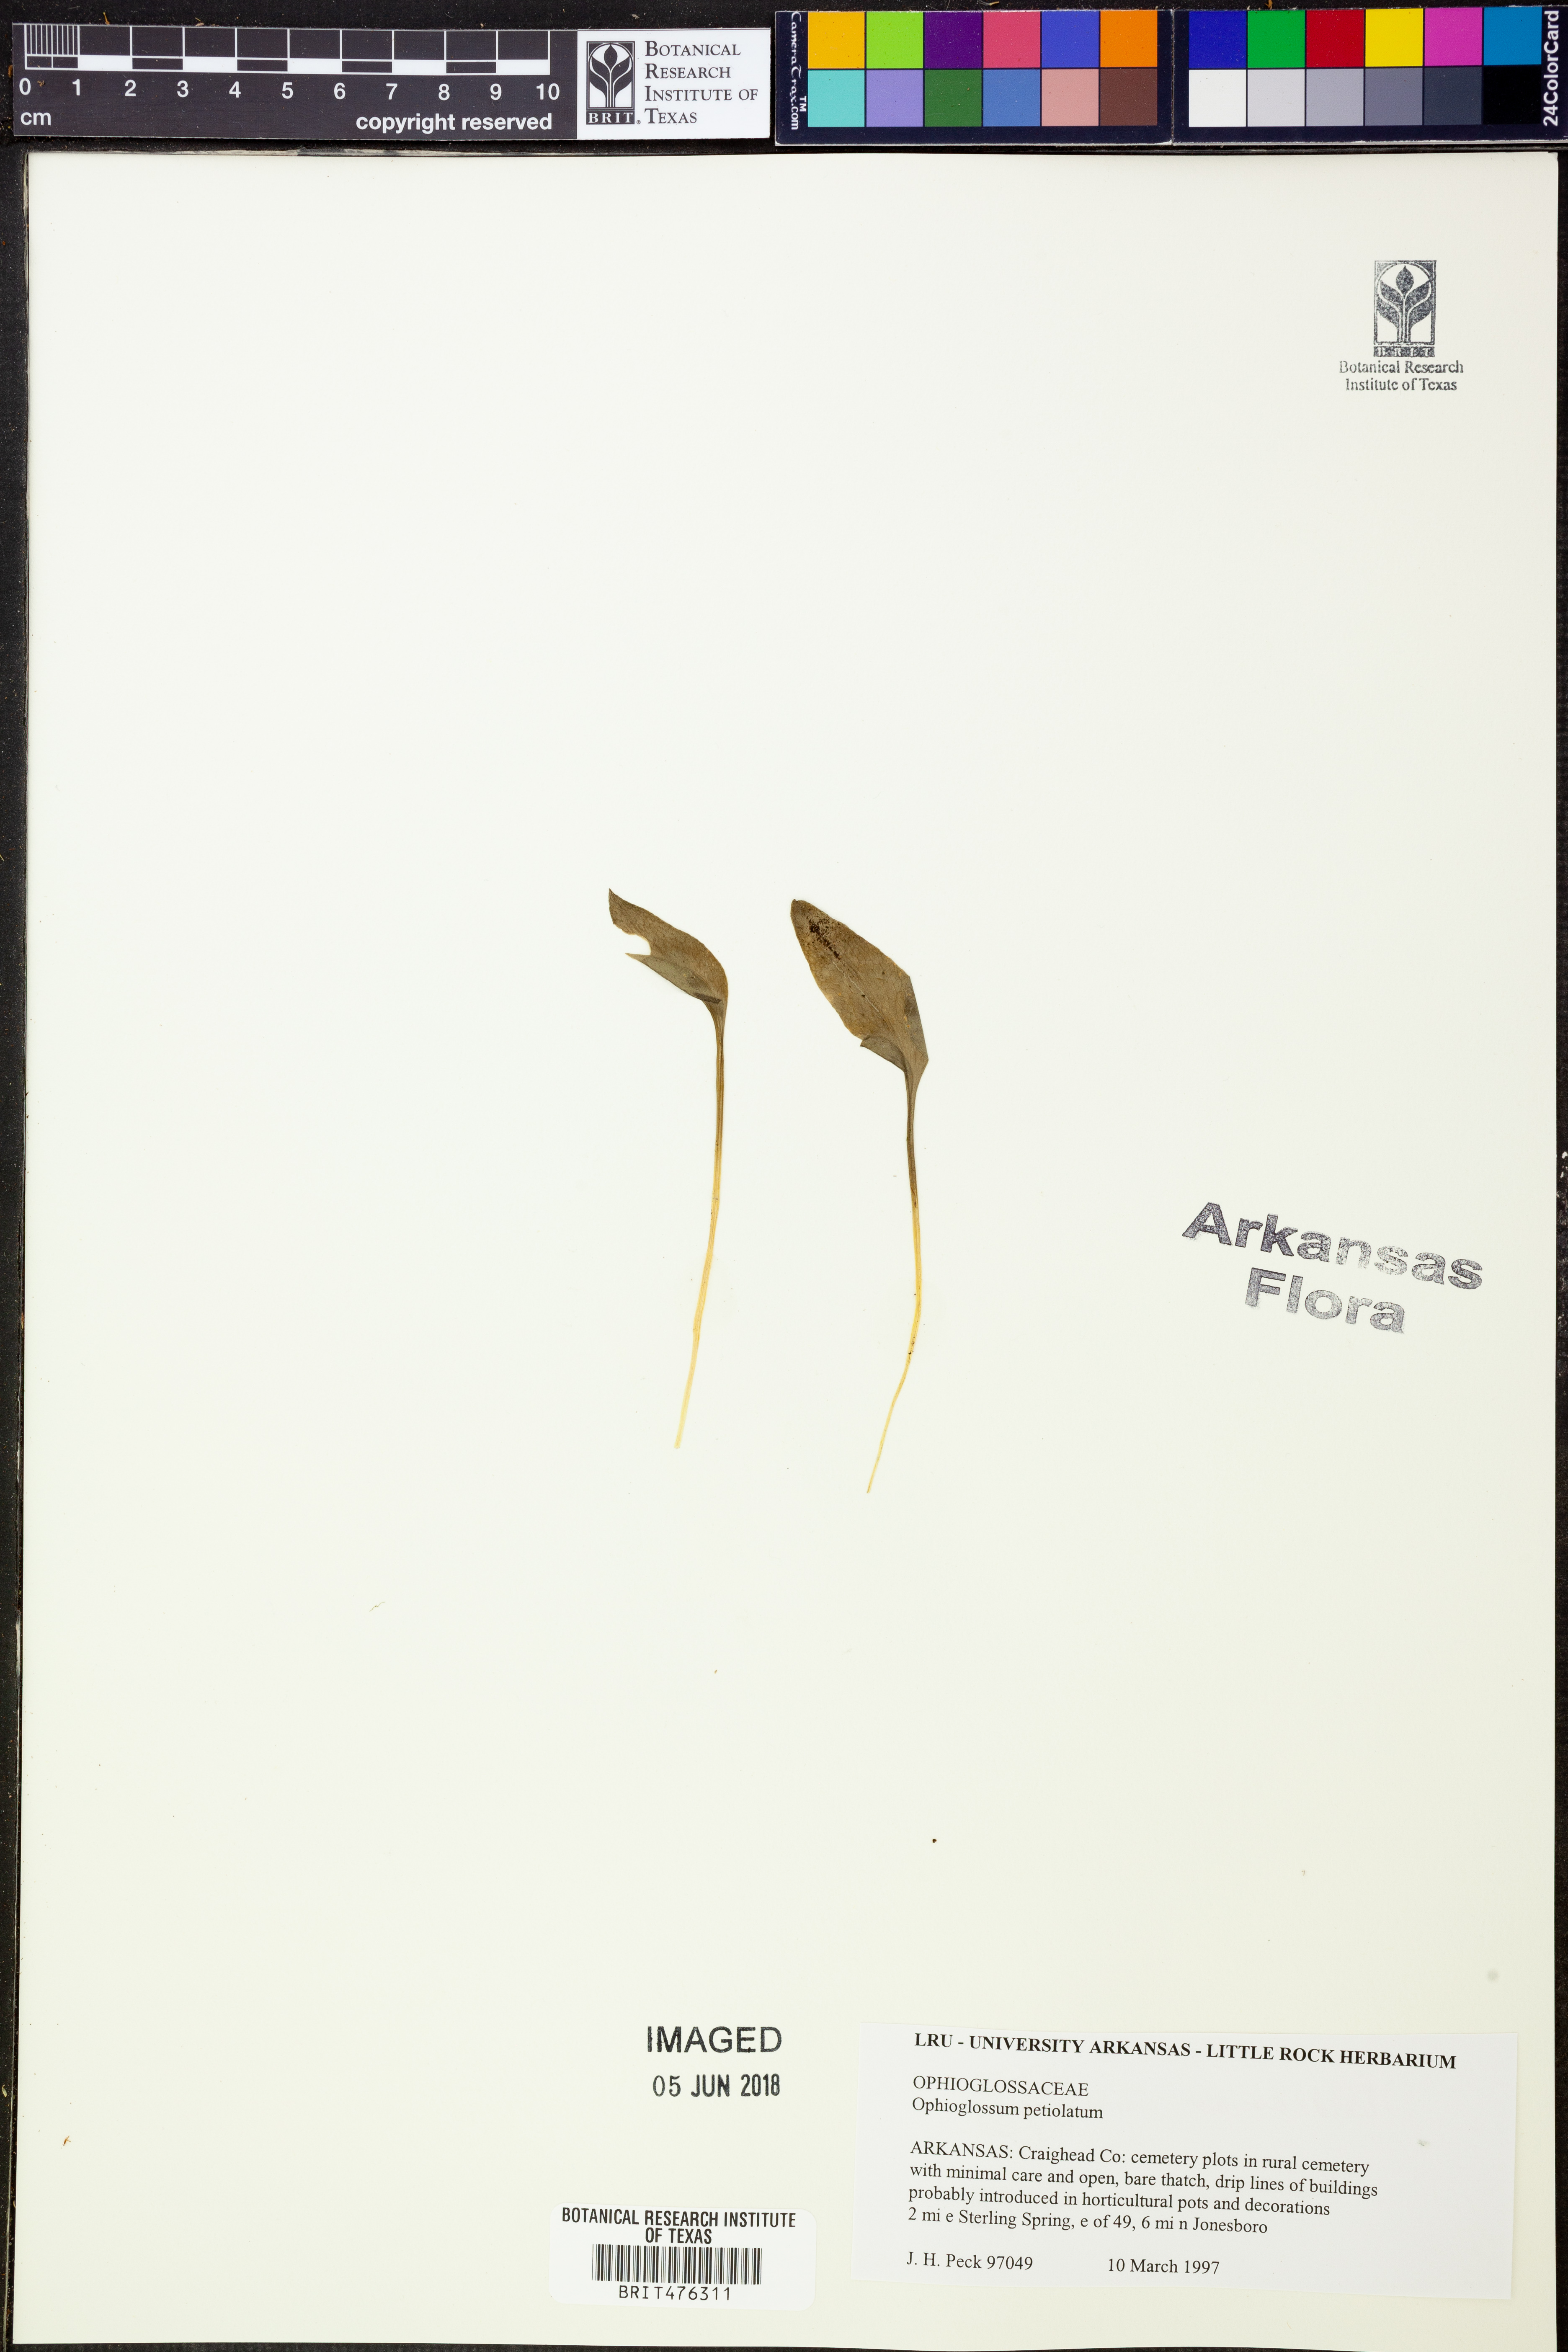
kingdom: Plantae
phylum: Tracheophyta
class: Polypodiopsida
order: Ophioglossales
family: Ophioglossaceae
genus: Ophioglossum
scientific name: Ophioglossum petiolatum
